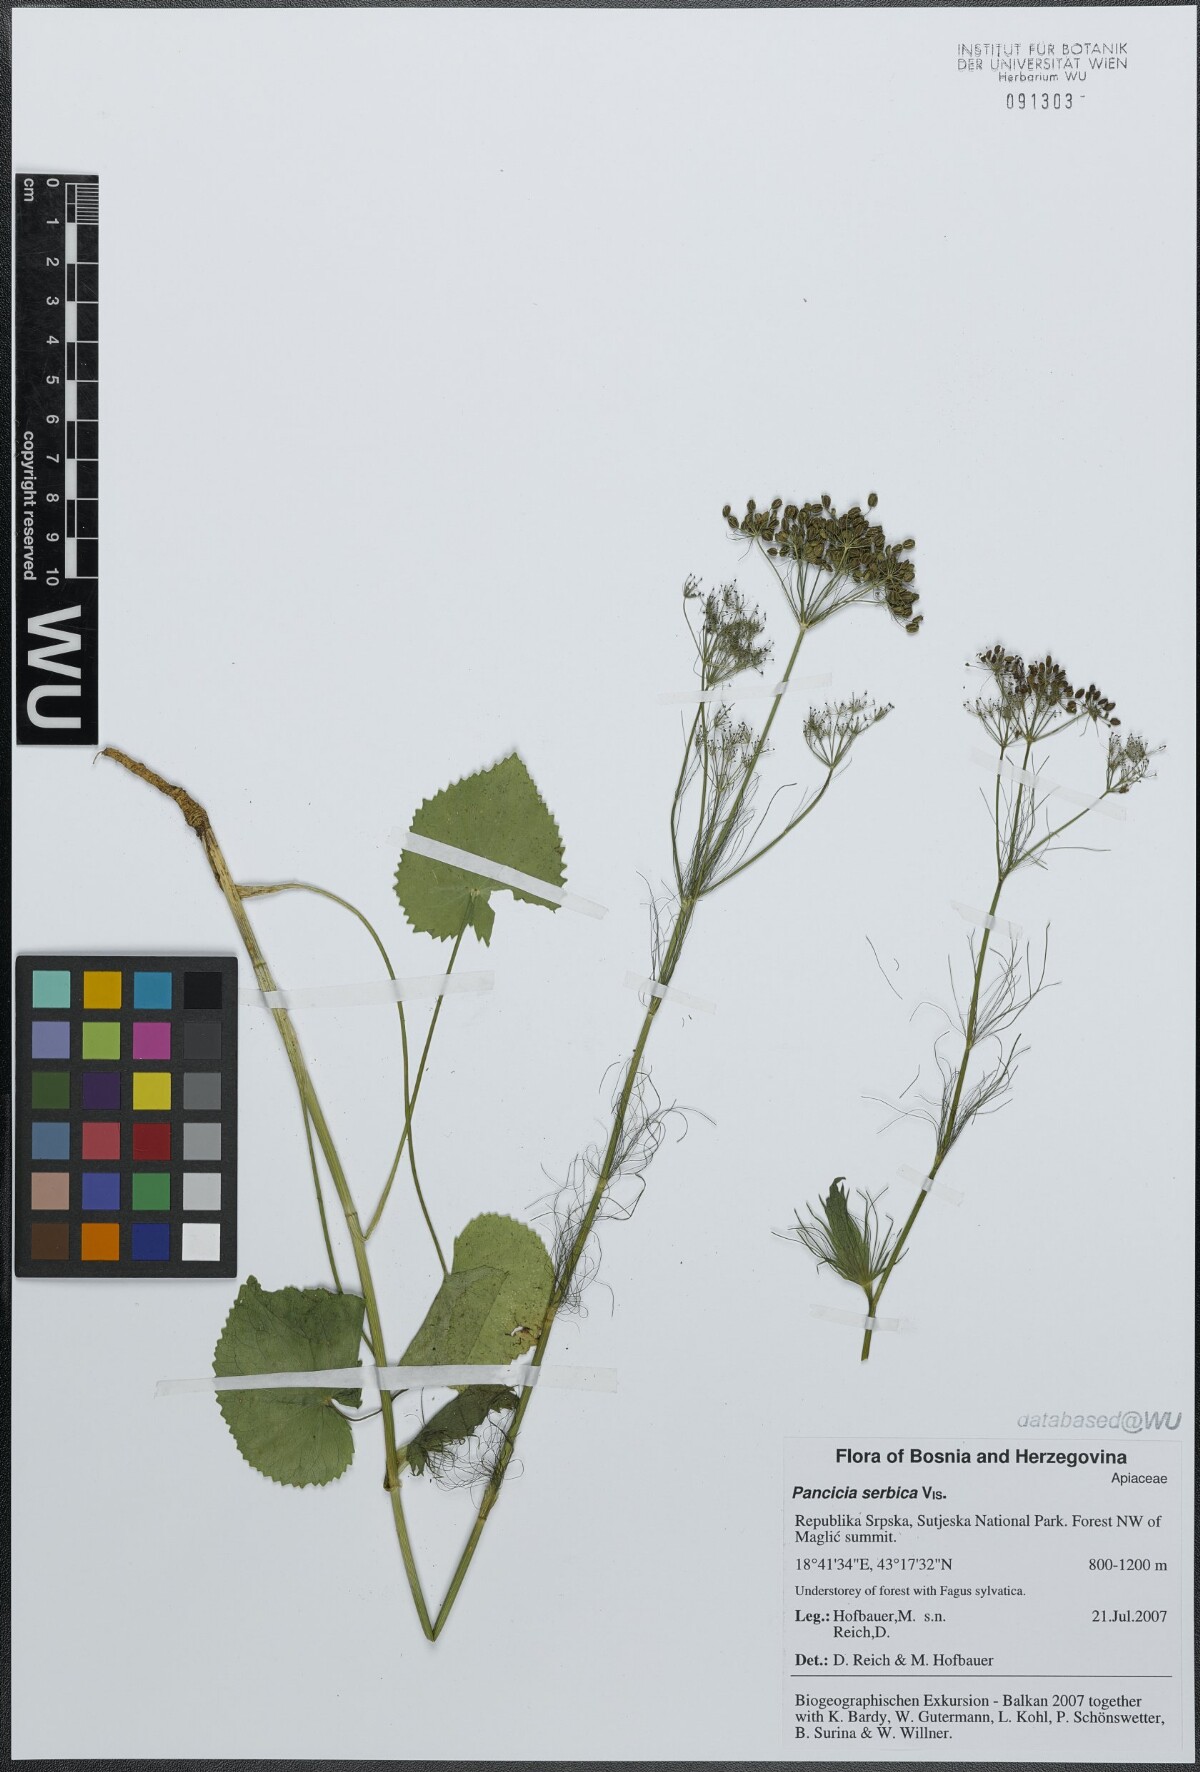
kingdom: Plantae
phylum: Tracheophyta
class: Magnoliopsida
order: Apiales
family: Apiaceae
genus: Pimpinella
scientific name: Pimpinella serbica
